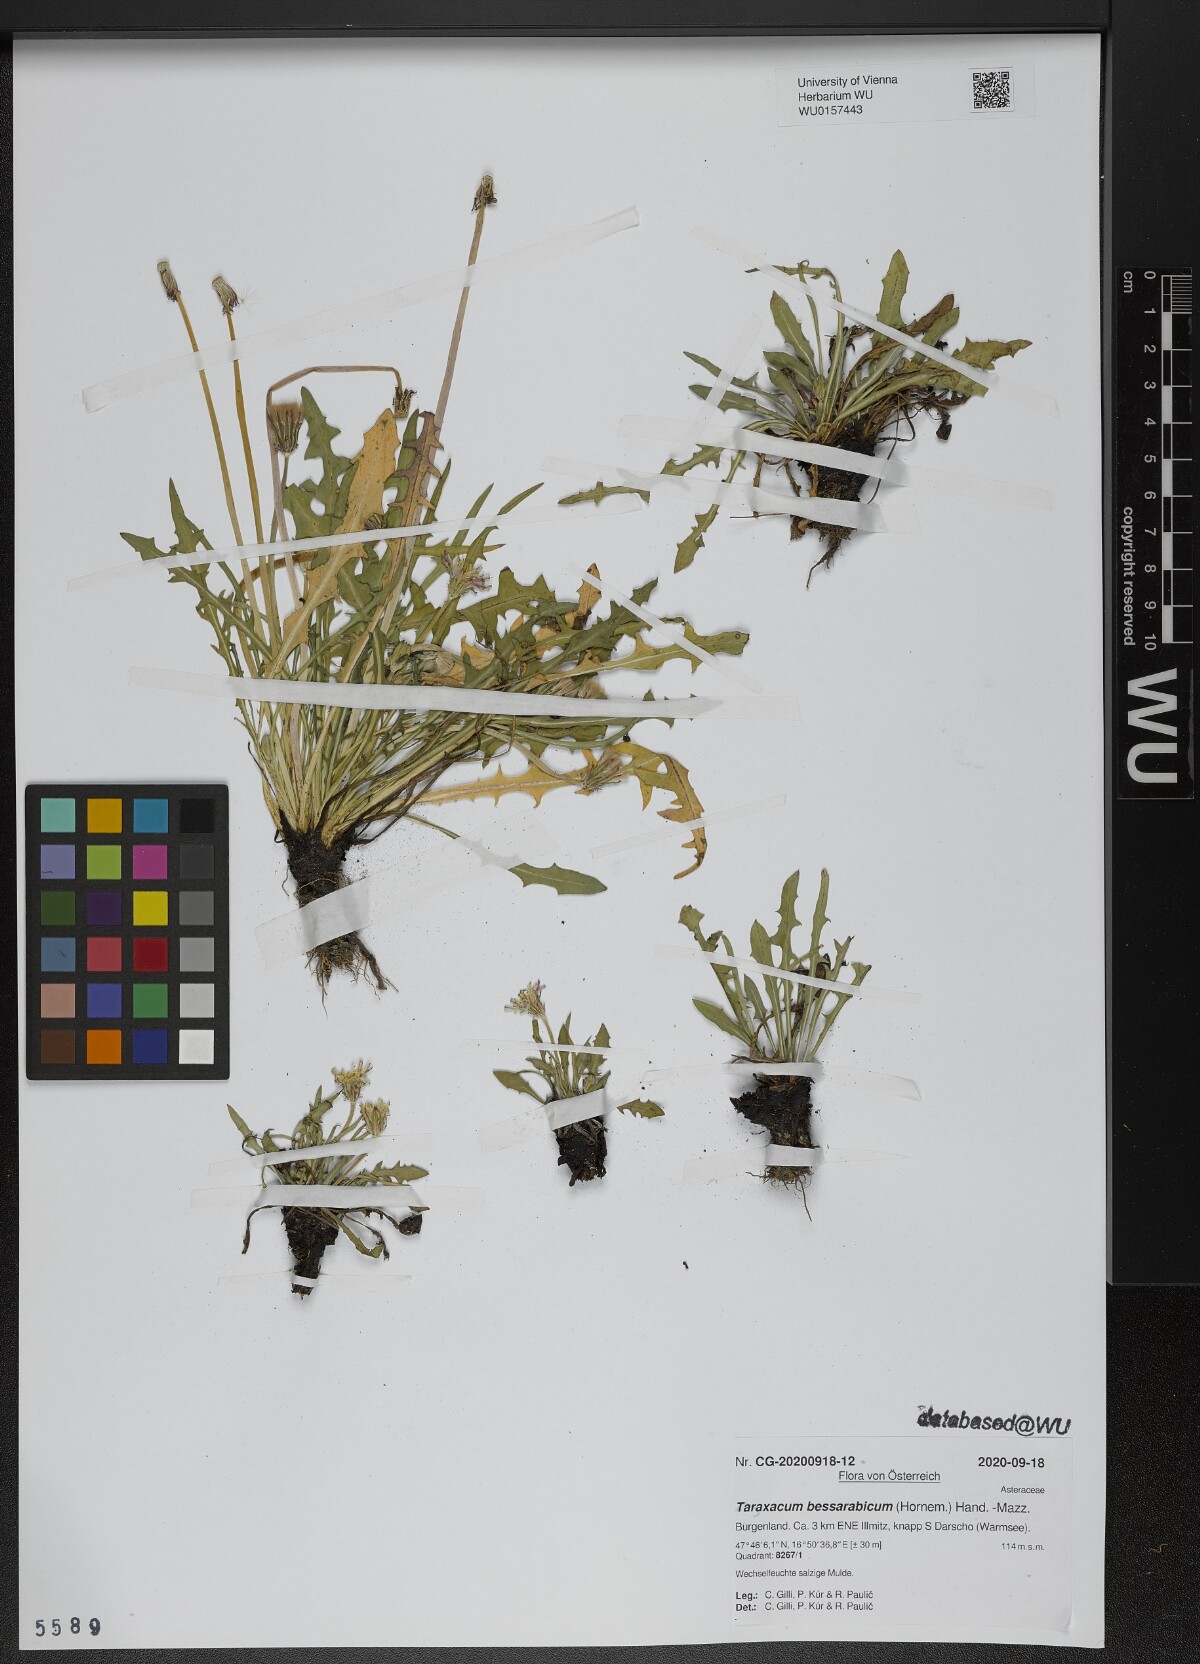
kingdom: Plantae
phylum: Tracheophyta
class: Magnoliopsida
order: Asterales
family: Asteraceae
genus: Taraxacum
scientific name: Taraxacum bessarabicum
